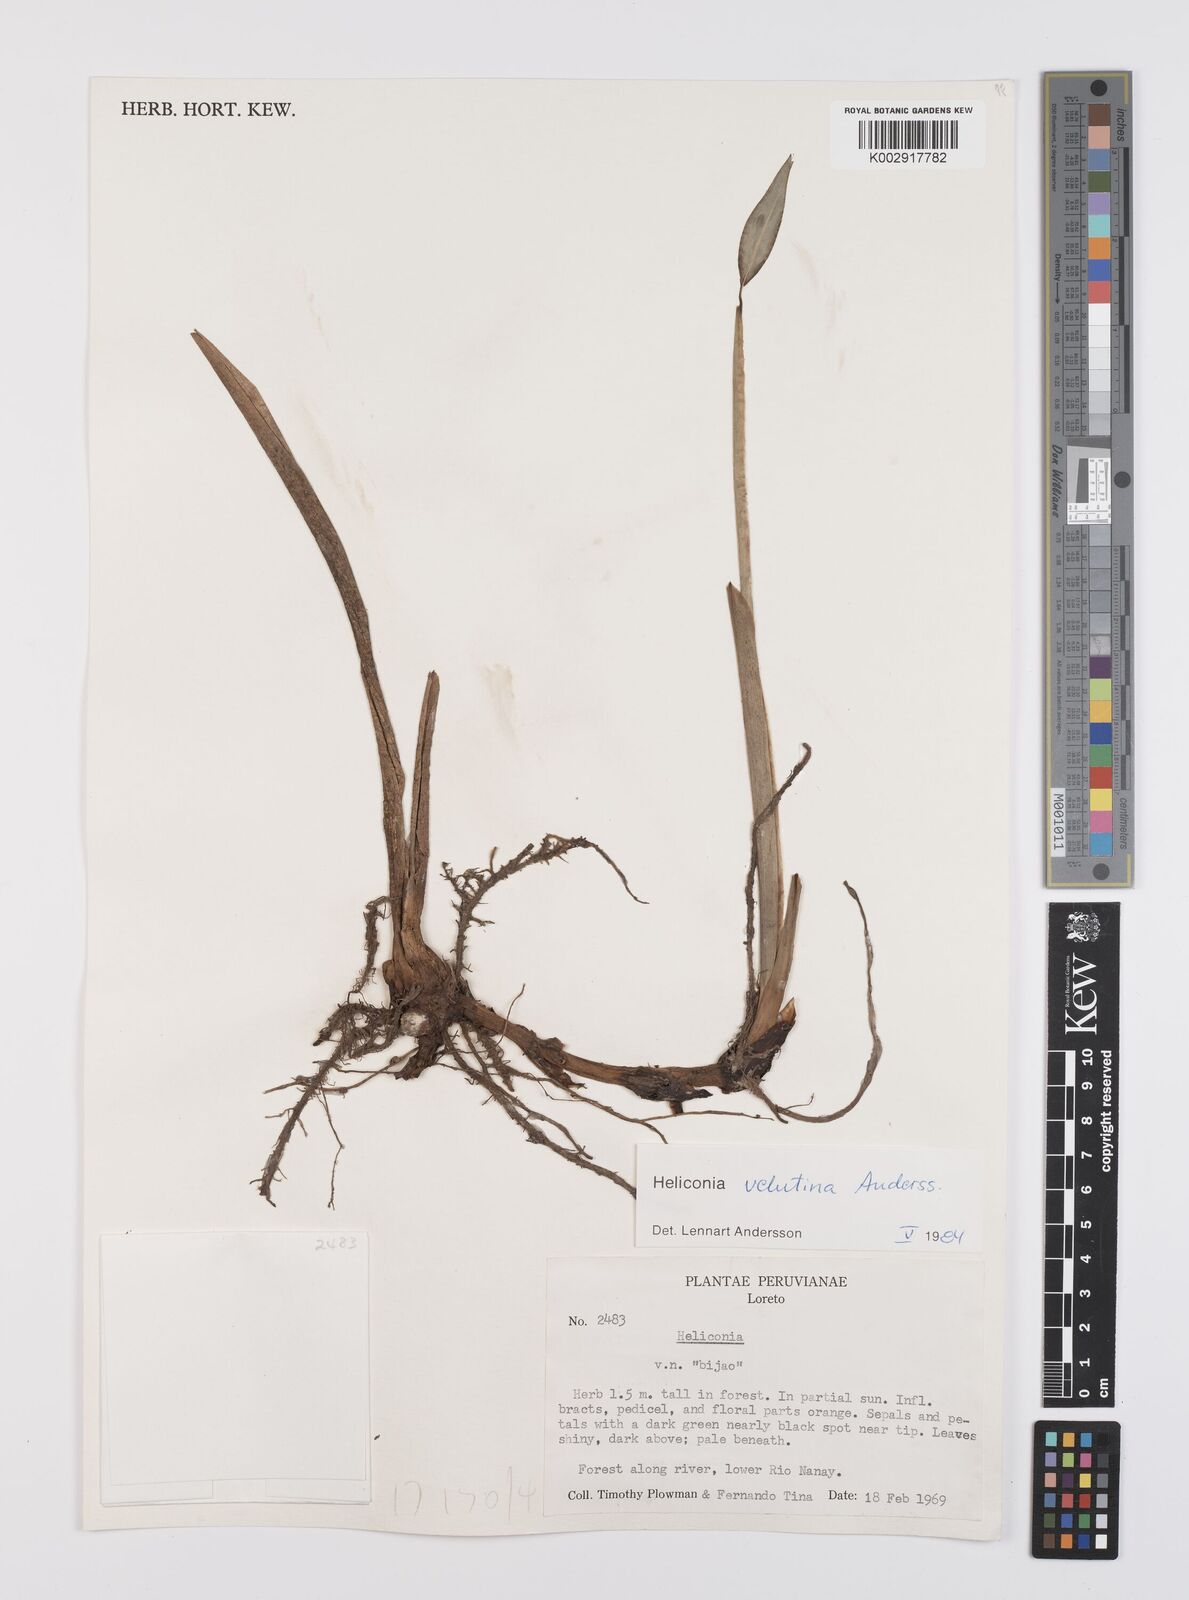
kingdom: Plantae
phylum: Tracheophyta
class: Liliopsida
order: Zingiberales
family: Heliconiaceae
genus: Heliconia
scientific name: Heliconia velutina
